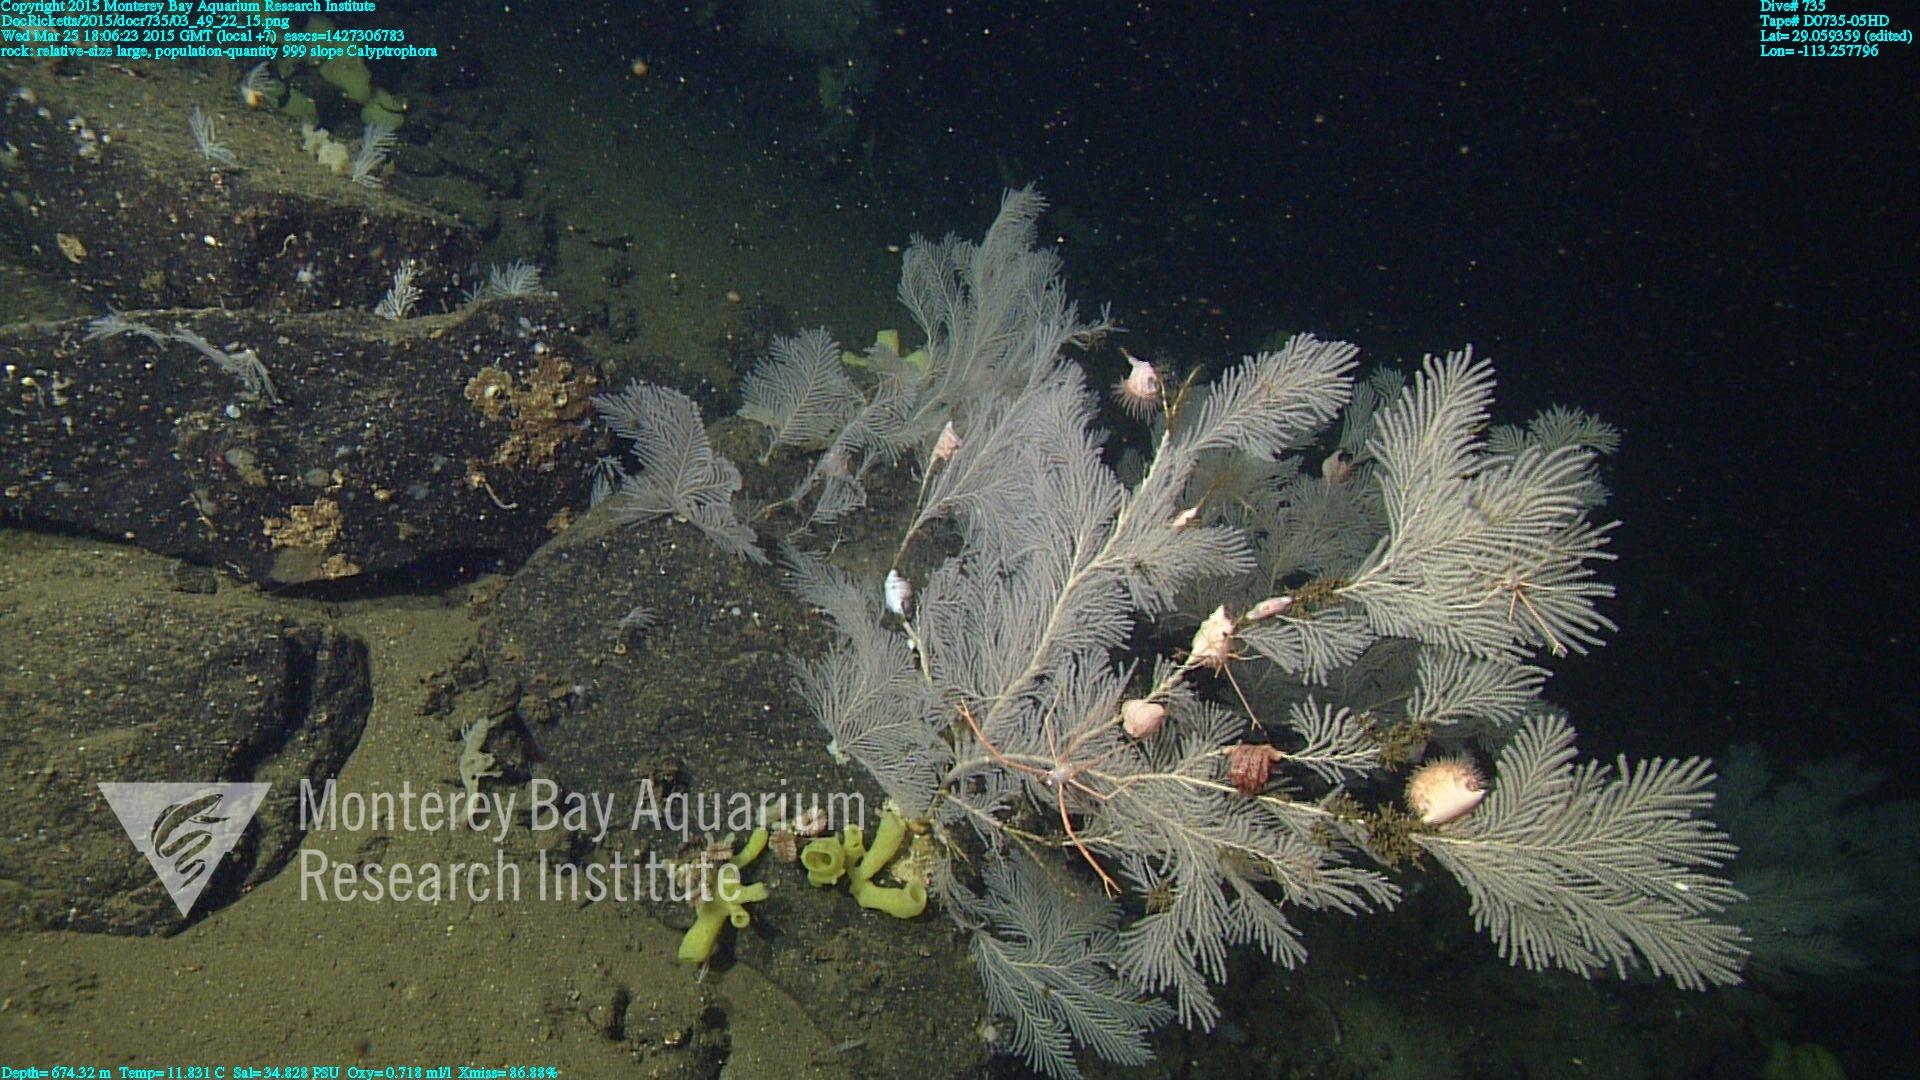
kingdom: Animalia
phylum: Cnidaria
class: Anthozoa
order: Scleralcyonacea
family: Primnoidae
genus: Calyptrophora
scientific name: Calyptrophora
